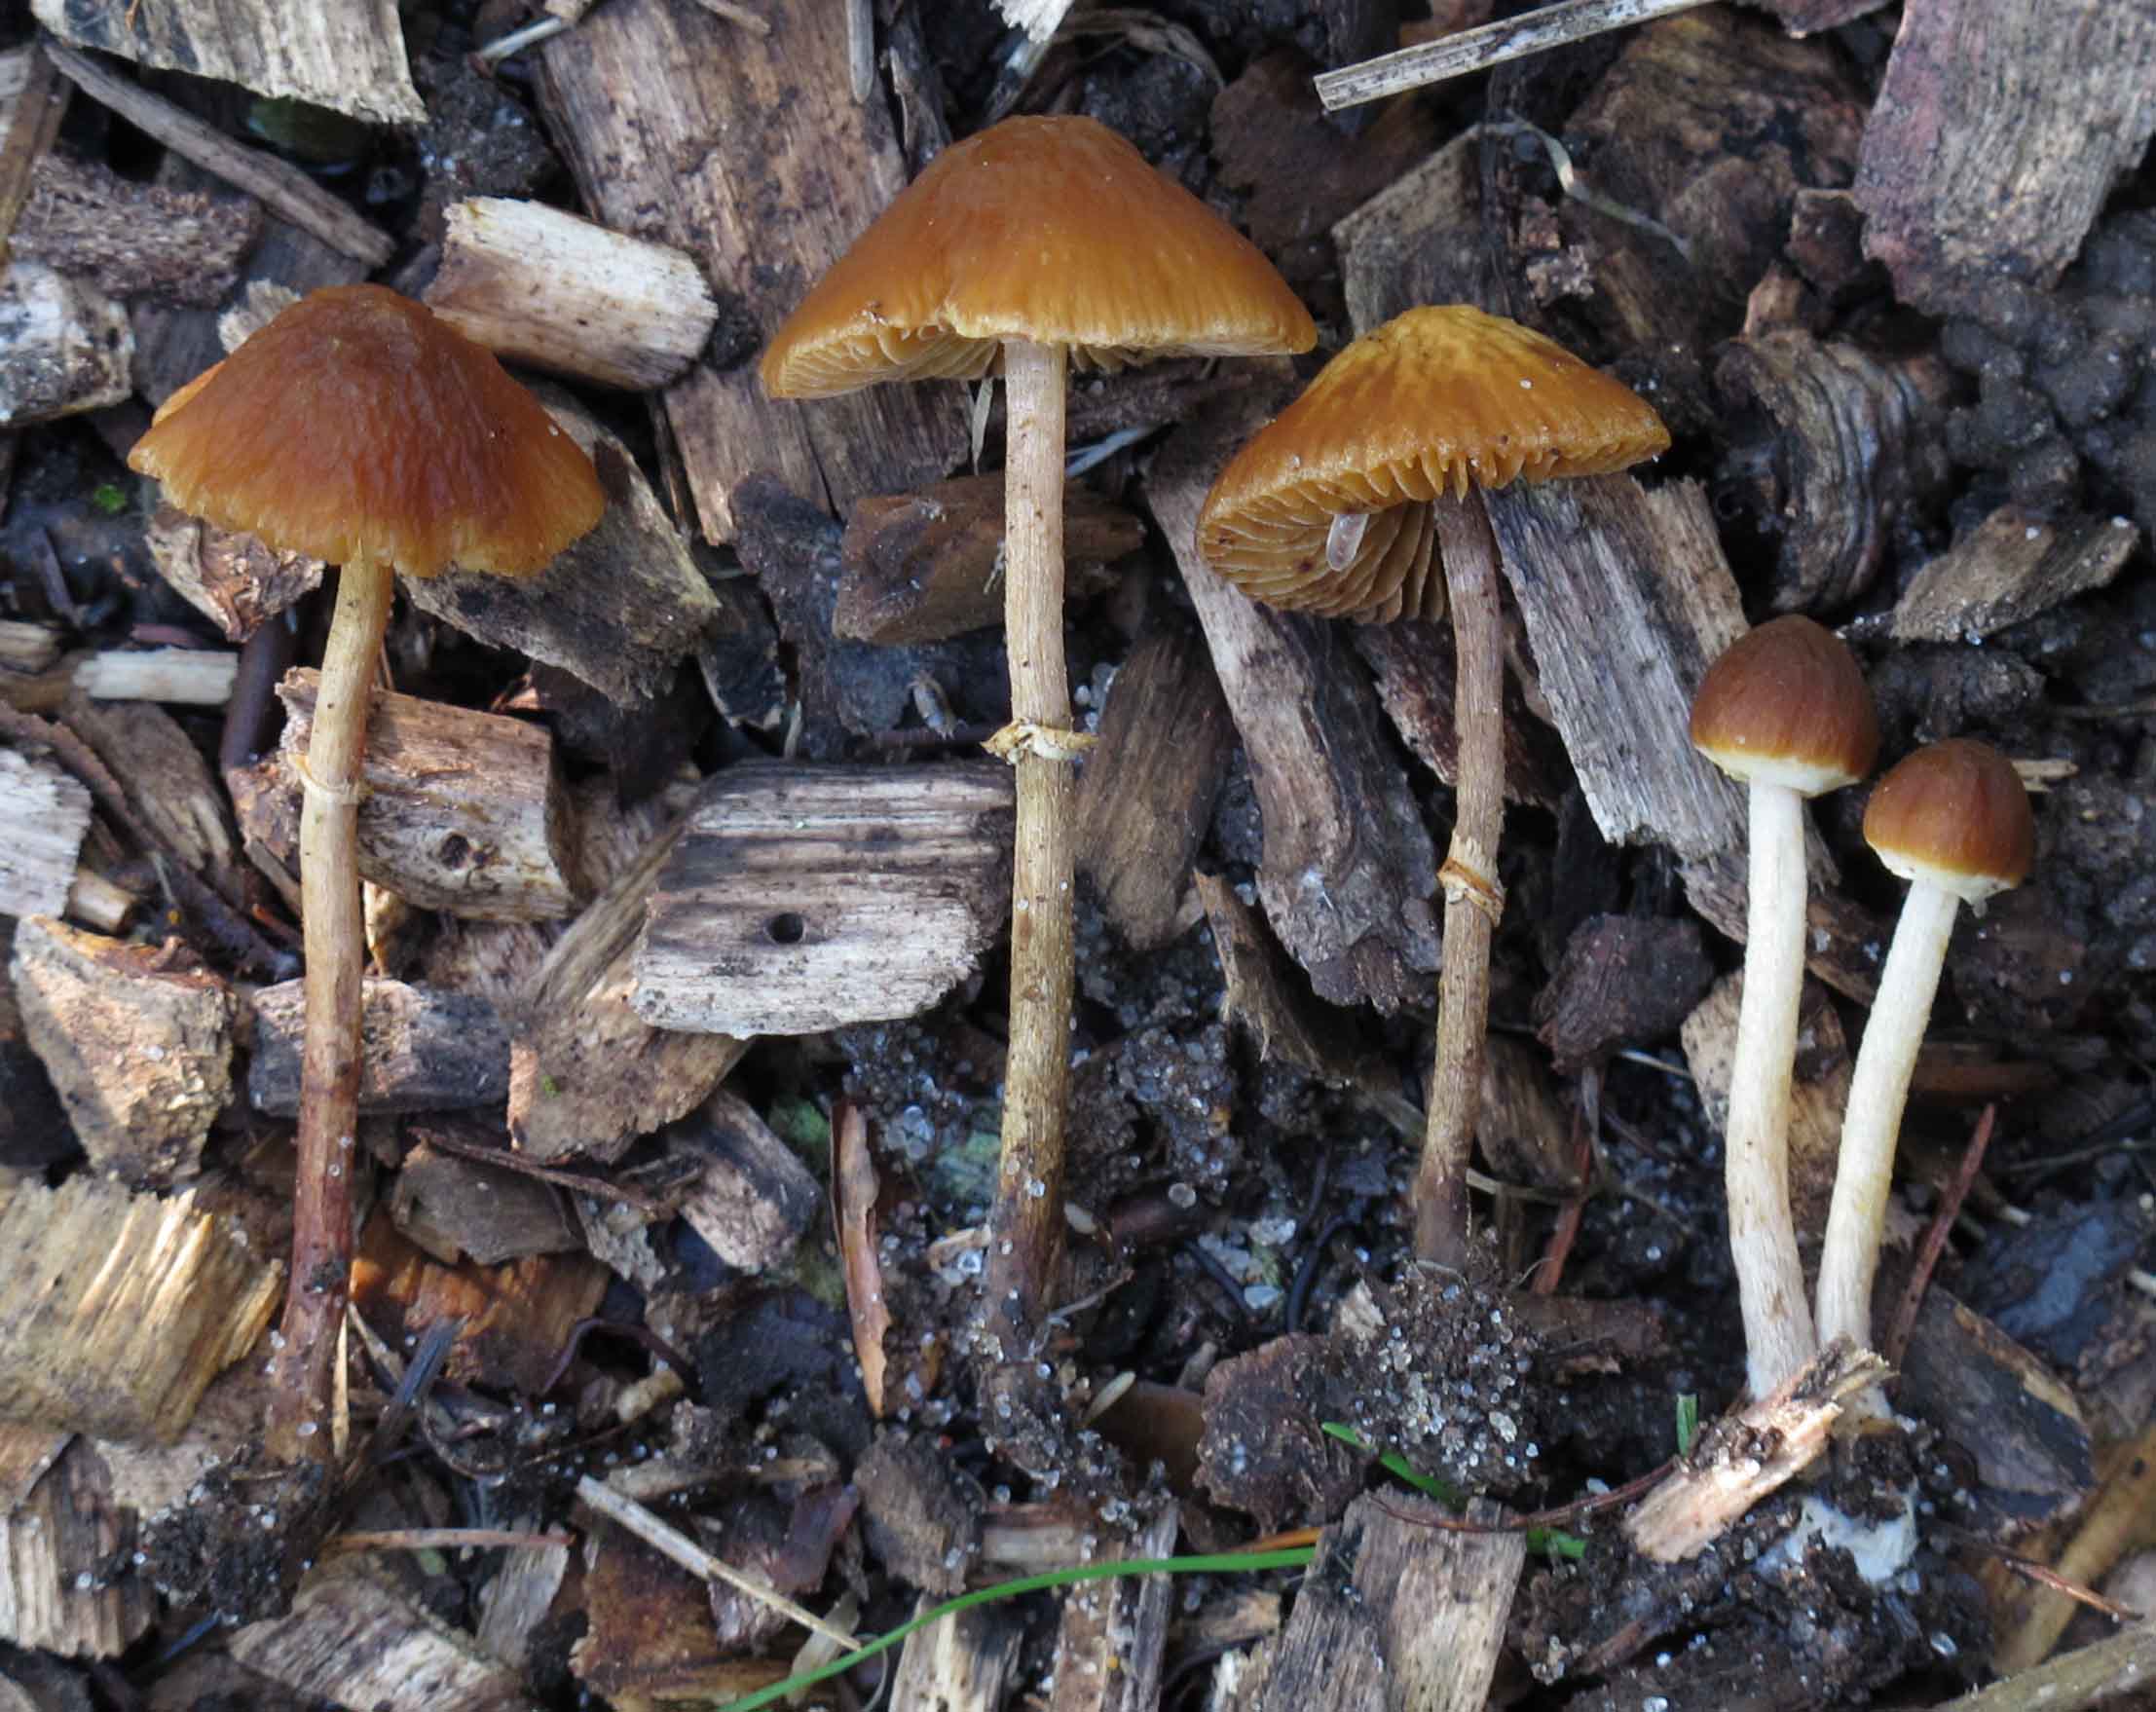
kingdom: Fungi
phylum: Basidiomycota
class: Agaricomycetes
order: Agaricales
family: Bolbitiaceae
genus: Conocybe
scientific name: Conocybe rugosa
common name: giftig dansehat
